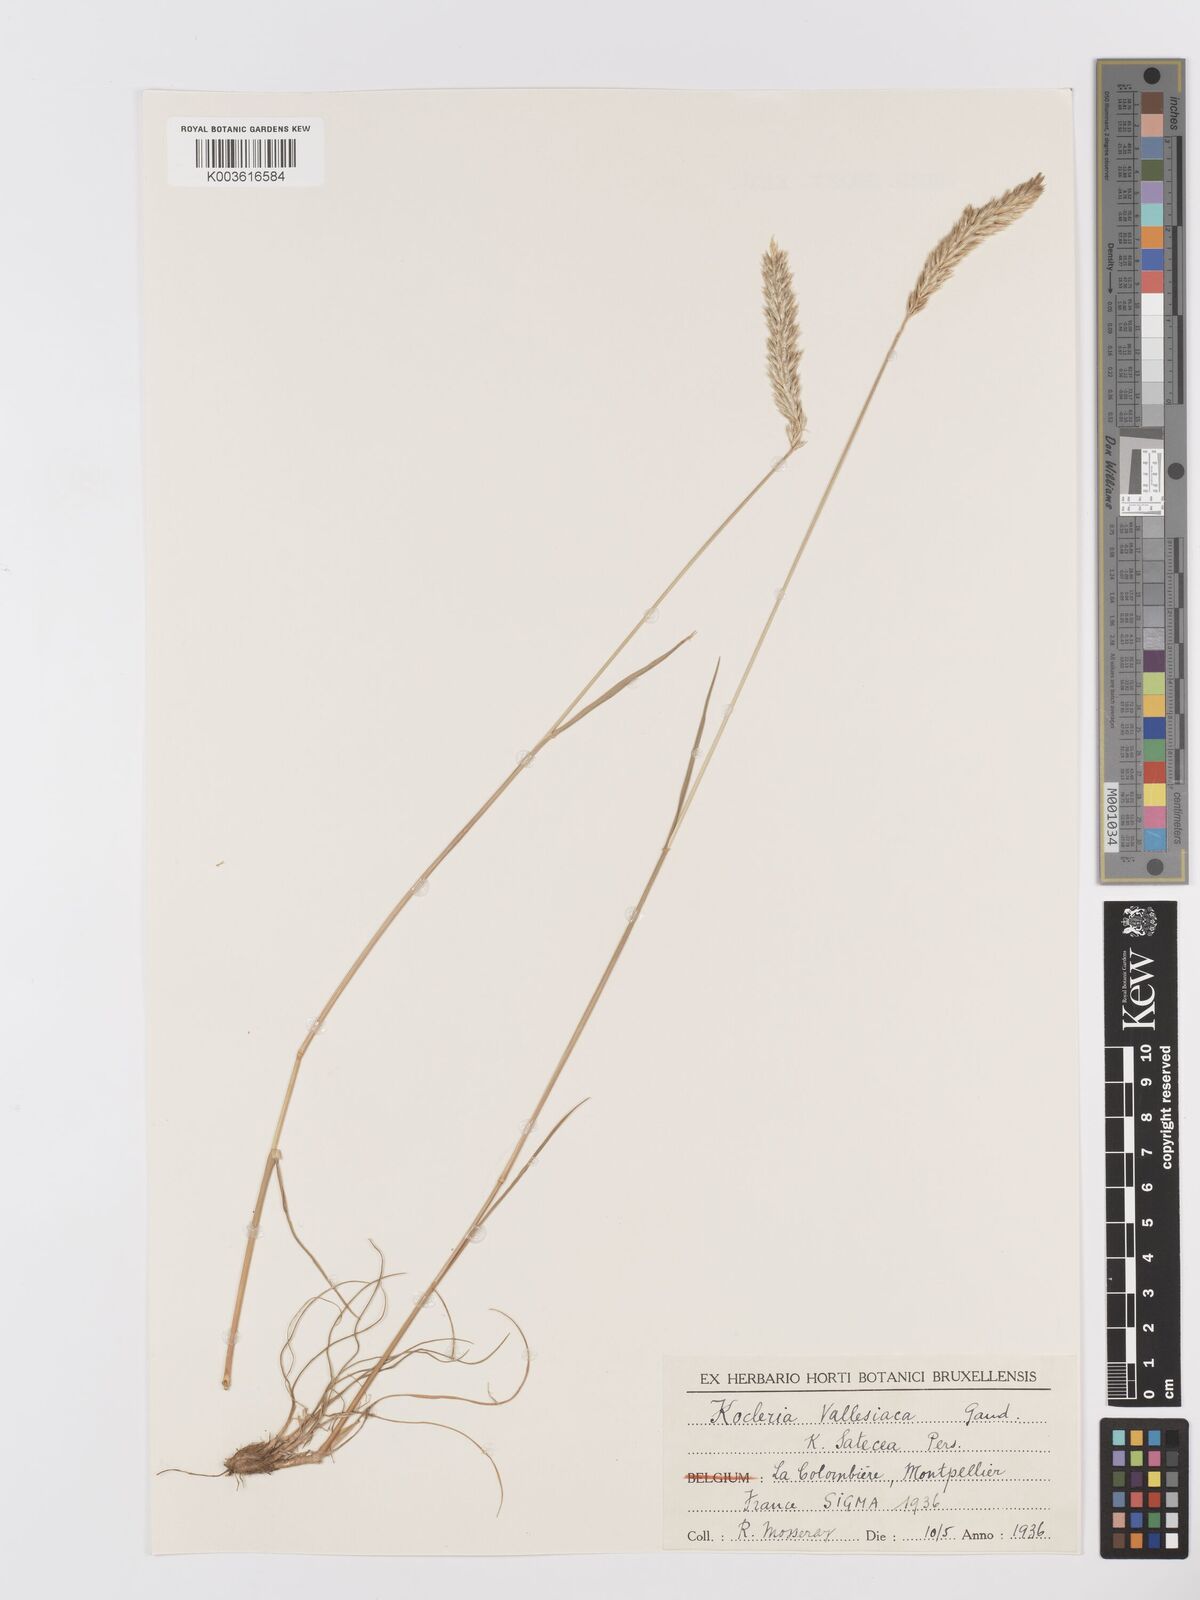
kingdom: Plantae
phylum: Tracheophyta
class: Liliopsida
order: Poales
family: Poaceae
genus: Koeleria
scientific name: Koeleria vallesiana
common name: Somerset hair-grass
